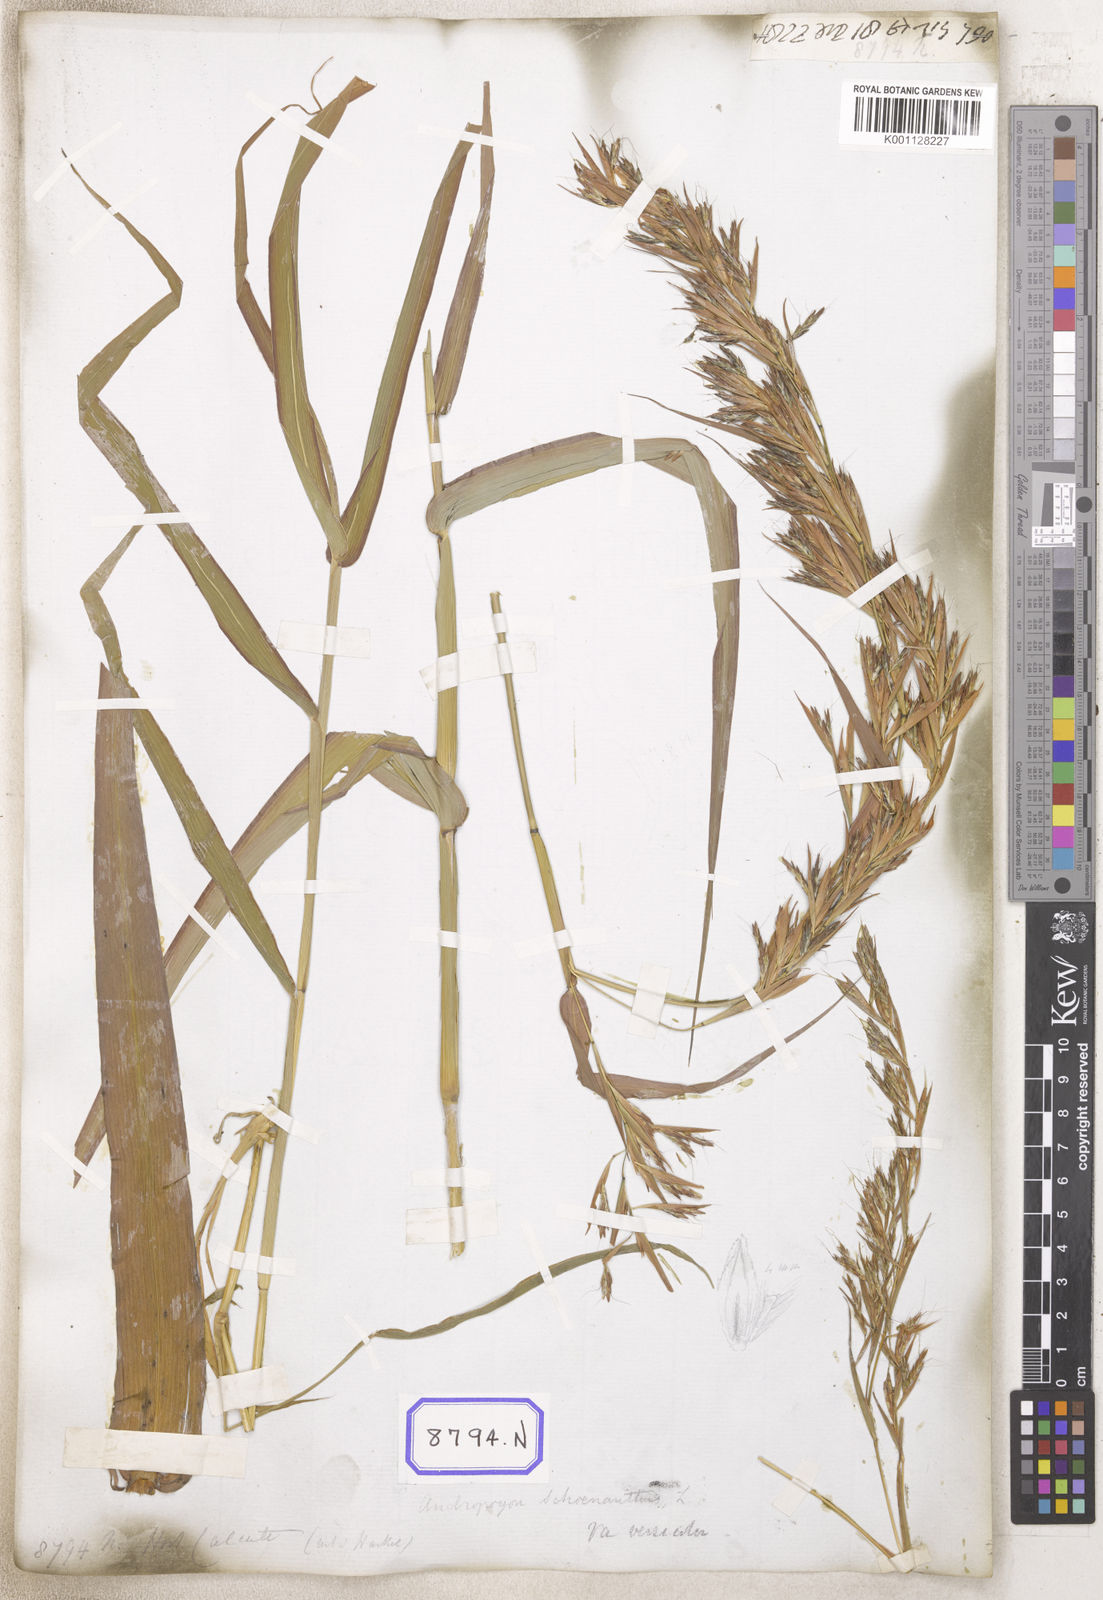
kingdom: Plantae
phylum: Tracheophyta
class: Liliopsida
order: Poales
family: Poaceae
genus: Cymbopogon
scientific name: Cymbopogon schoenanthus
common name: Geranium grass
